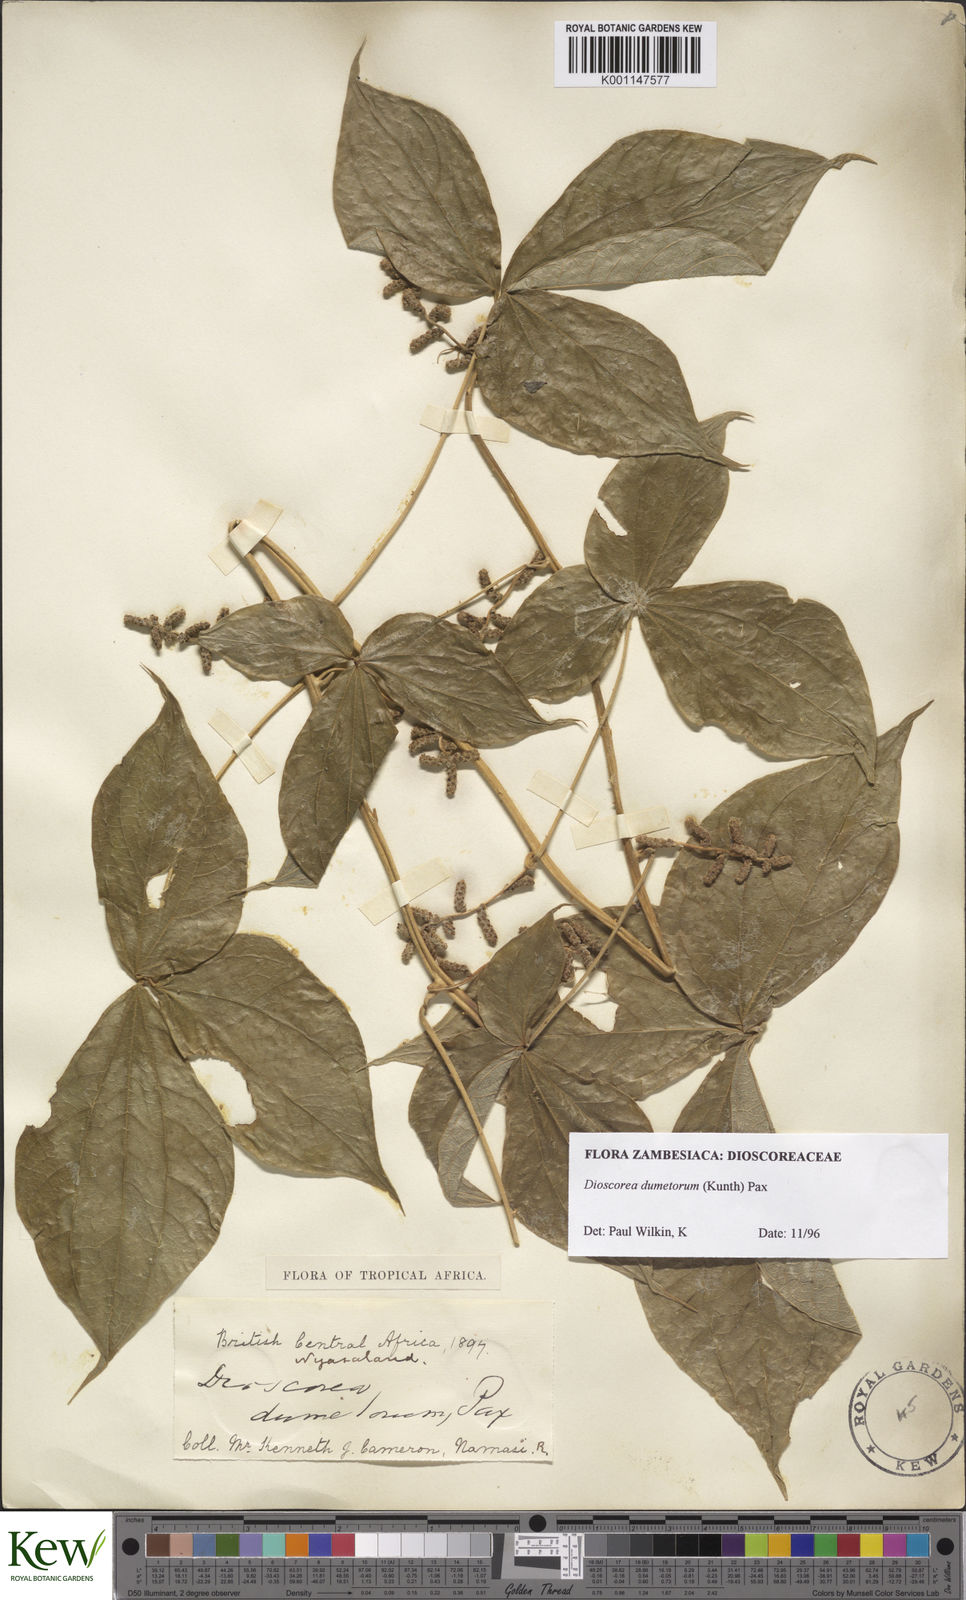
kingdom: Plantae
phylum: Tracheophyta
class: Liliopsida
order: Dioscoreales
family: Dioscoreaceae
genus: Dioscorea
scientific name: Dioscorea dumetorum
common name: African bitter yam
